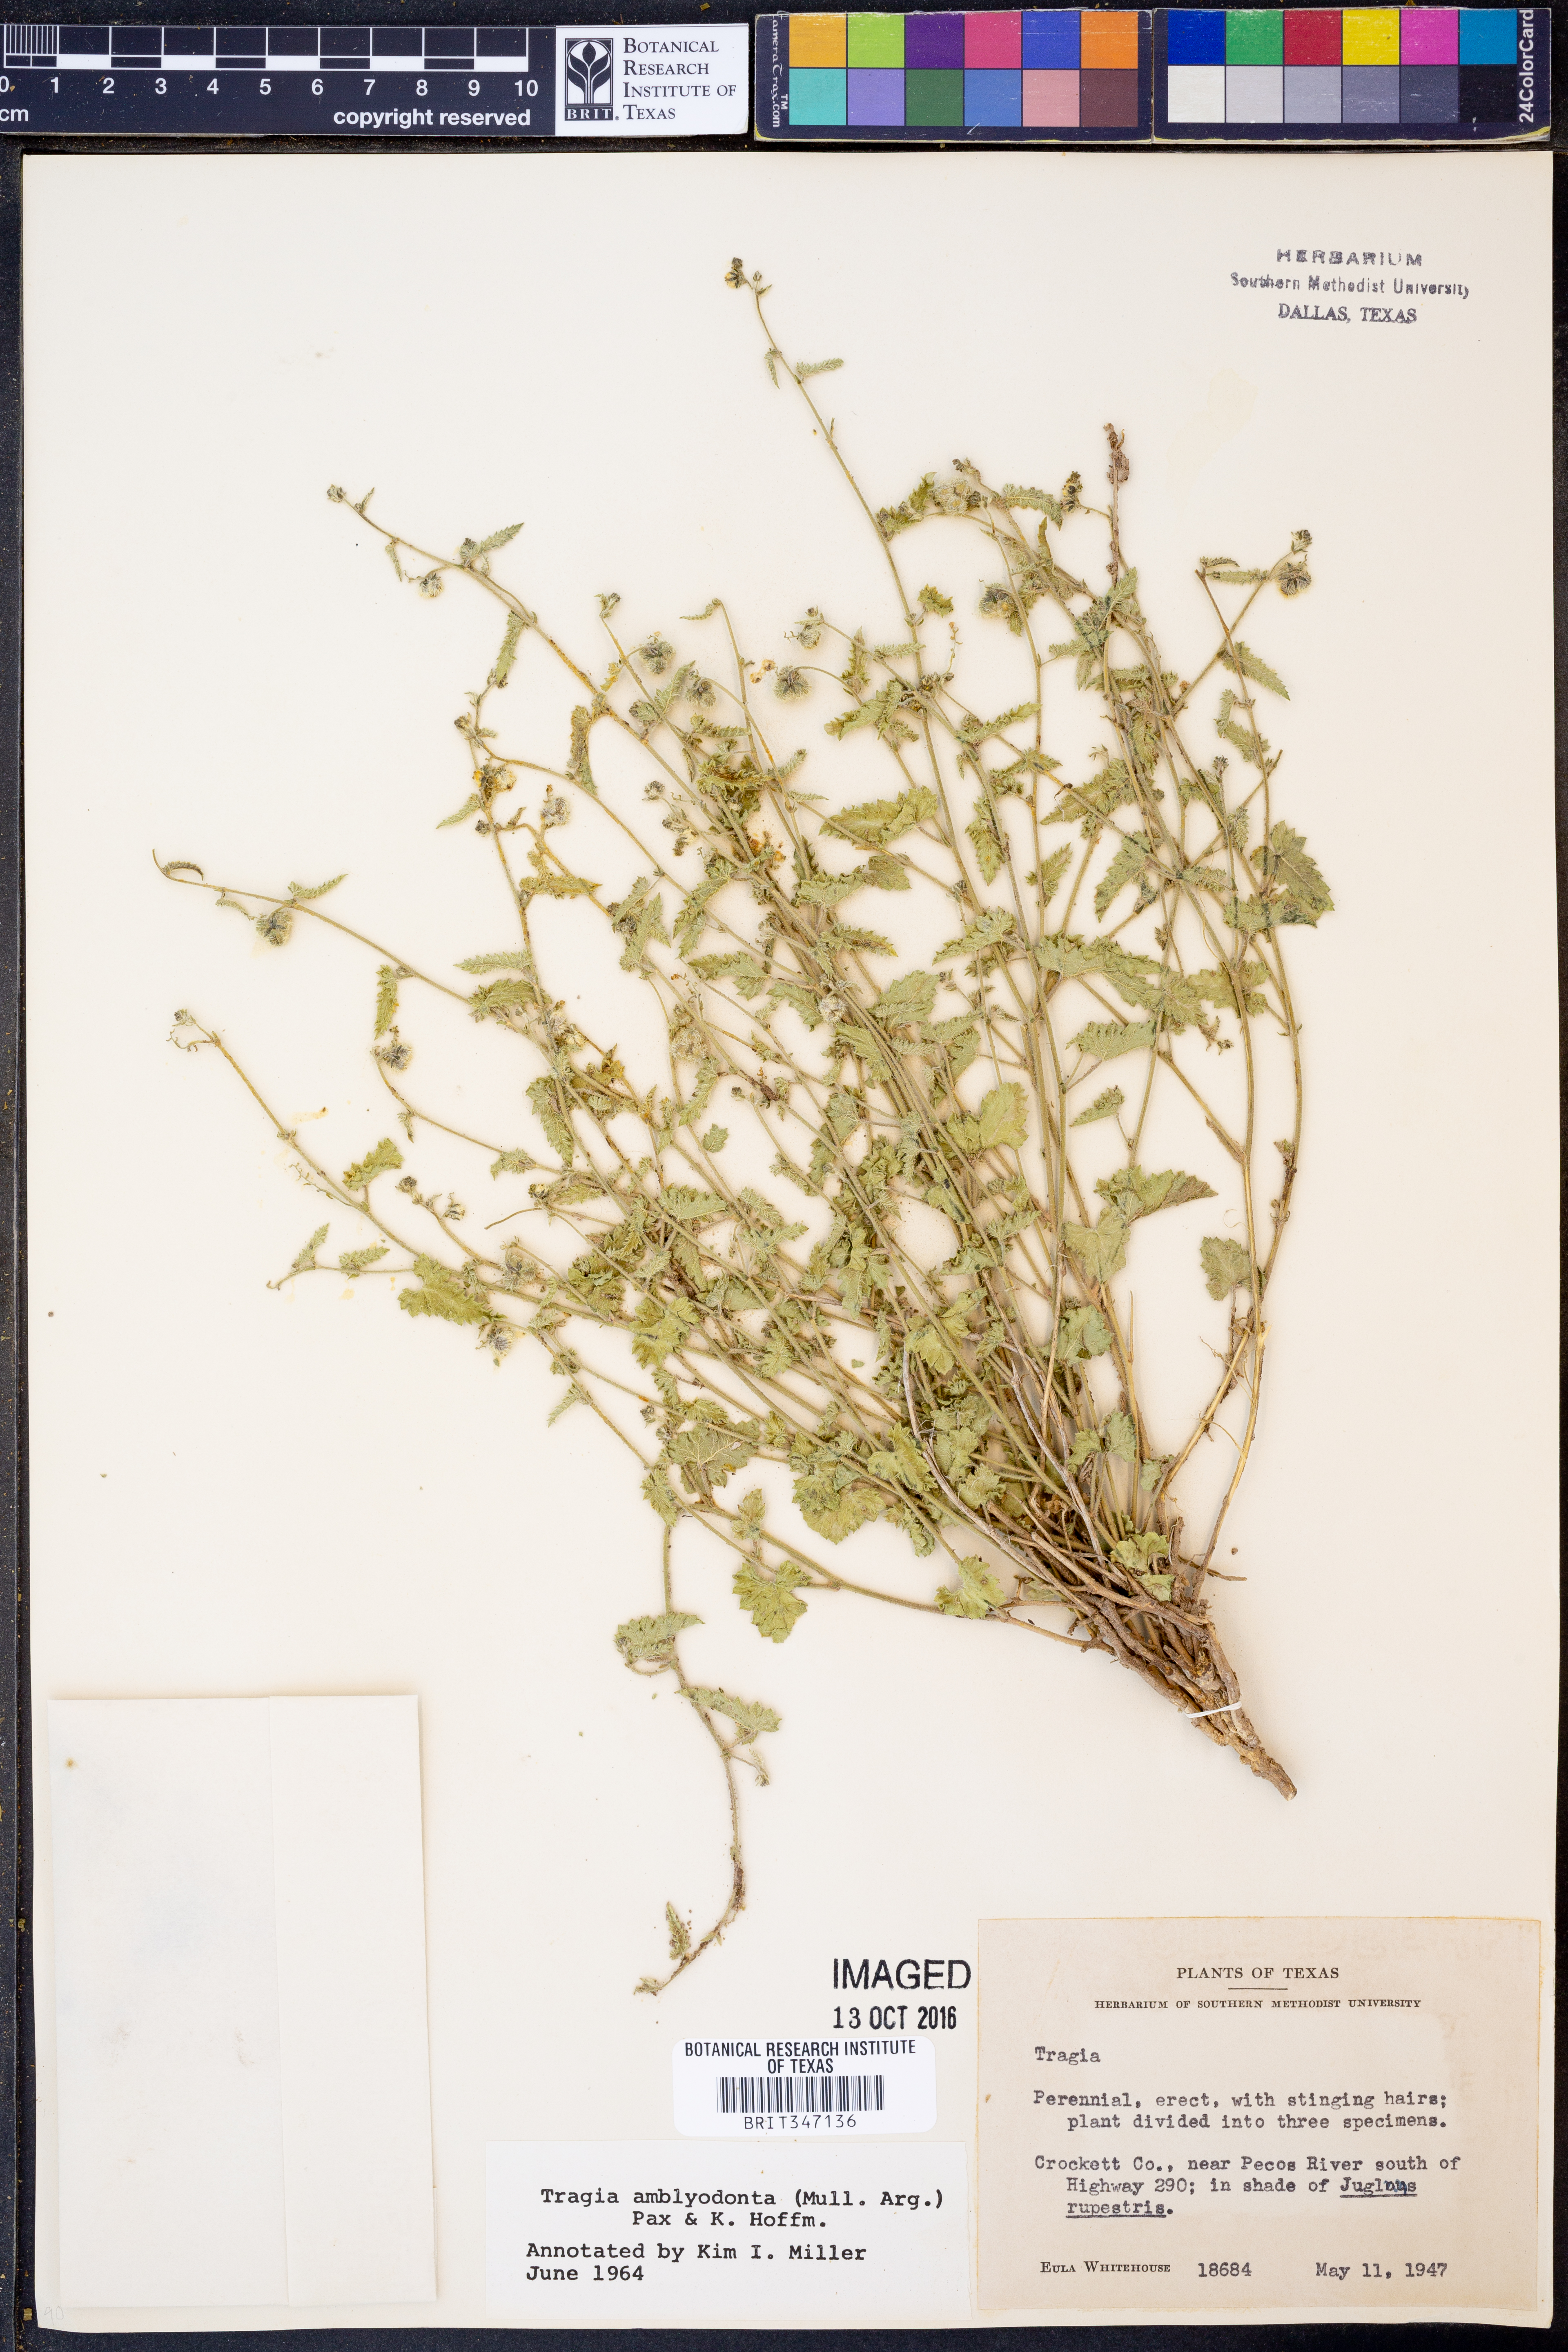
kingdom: Plantae
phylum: Tracheophyta
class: Magnoliopsida
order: Malpighiales
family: Euphorbiaceae
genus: Tragia
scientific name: Tragia amblyodonta
